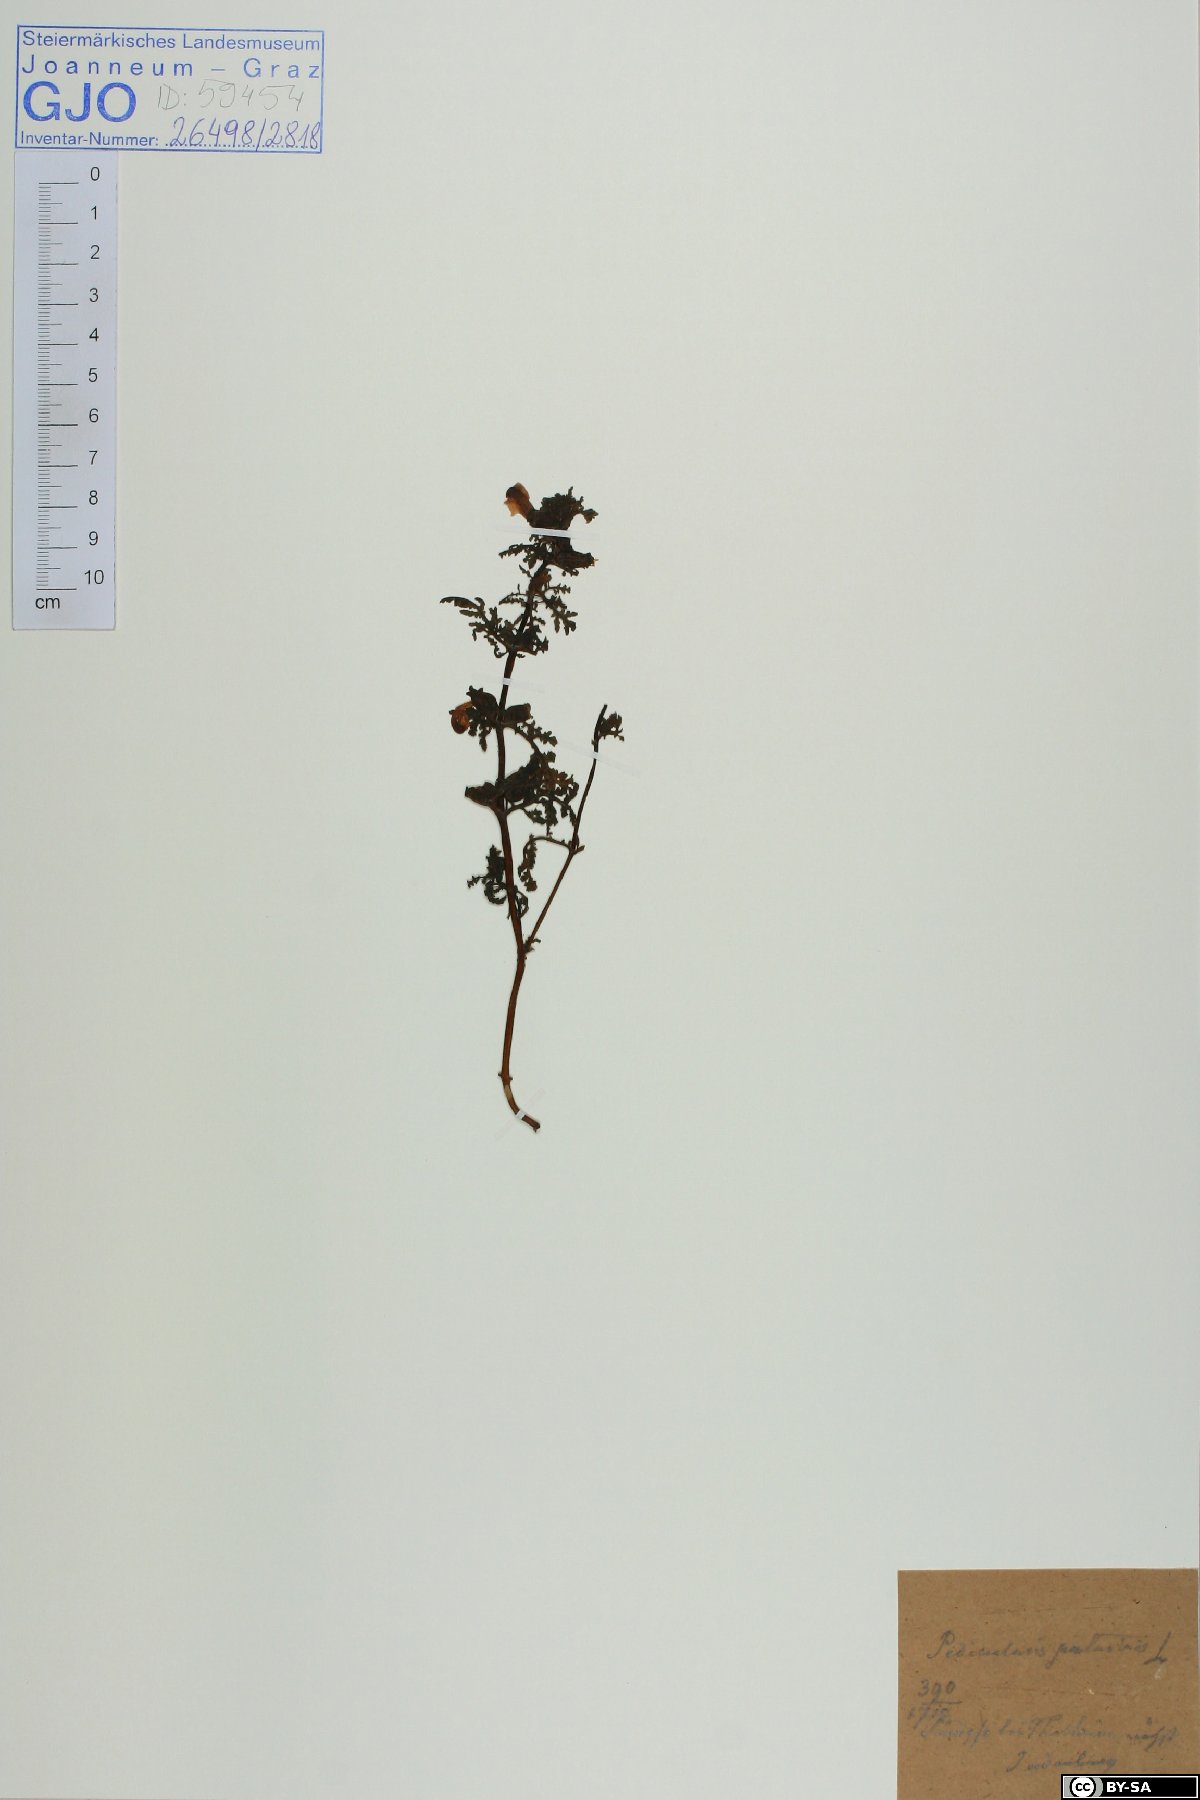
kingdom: Plantae
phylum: Tracheophyta
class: Magnoliopsida
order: Lamiales
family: Orobanchaceae
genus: Pedicularis
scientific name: Pedicularis palustris
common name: Marsh lousewort
